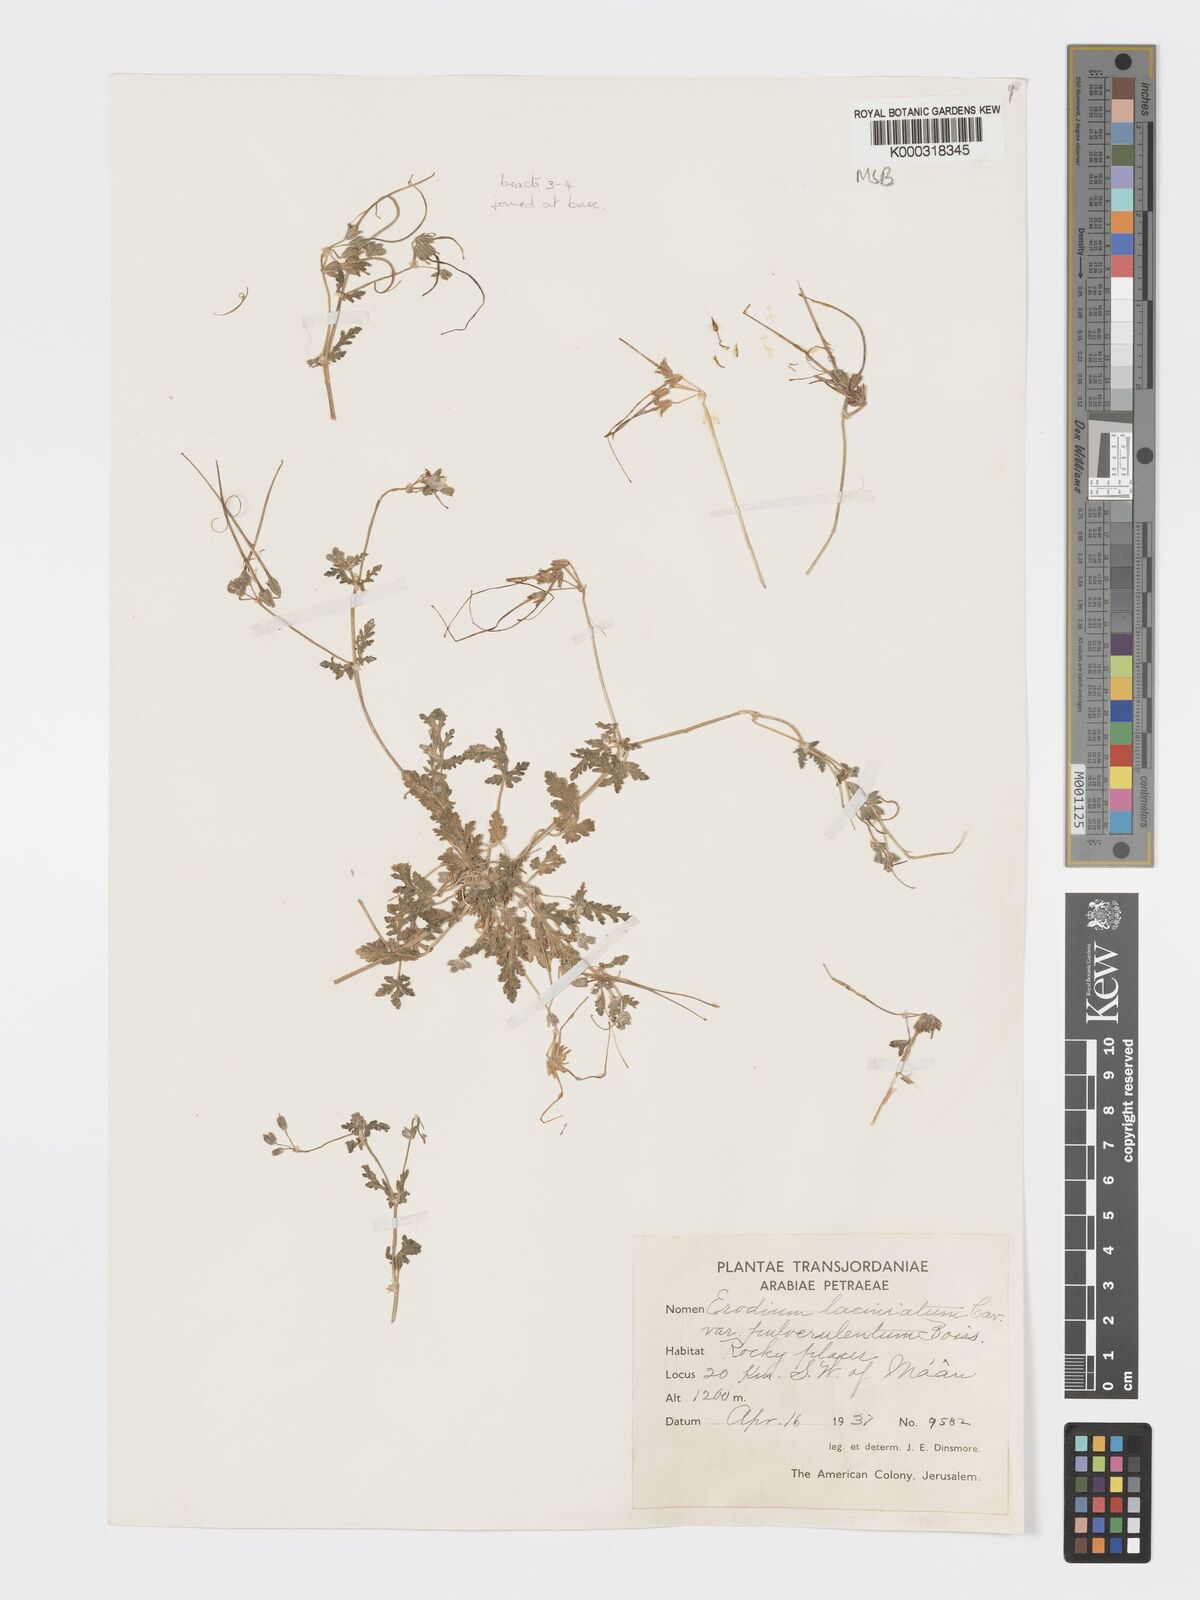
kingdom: Plantae
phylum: Tracheophyta
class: Magnoliopsida
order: Geraniales
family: Geraniaceae
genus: Erodium
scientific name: Erodium laciniatum
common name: Cutleaf stork's bill
